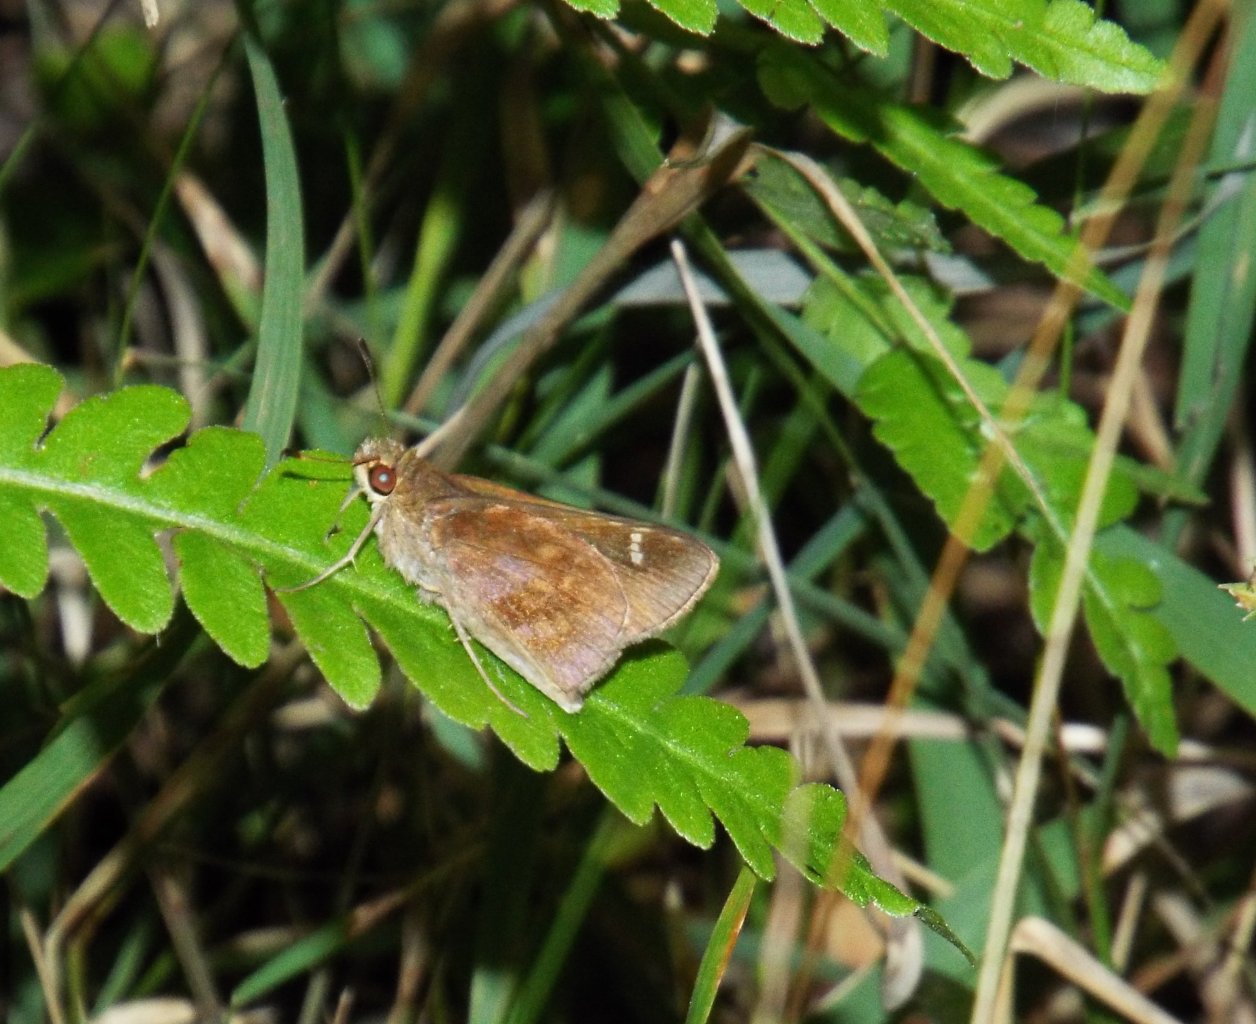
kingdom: Animalia
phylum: Arthropoda
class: Insecta
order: Lepidoptera
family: Hesperiidae
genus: Lerema
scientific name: Lerema accius
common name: Clouded Skipper
